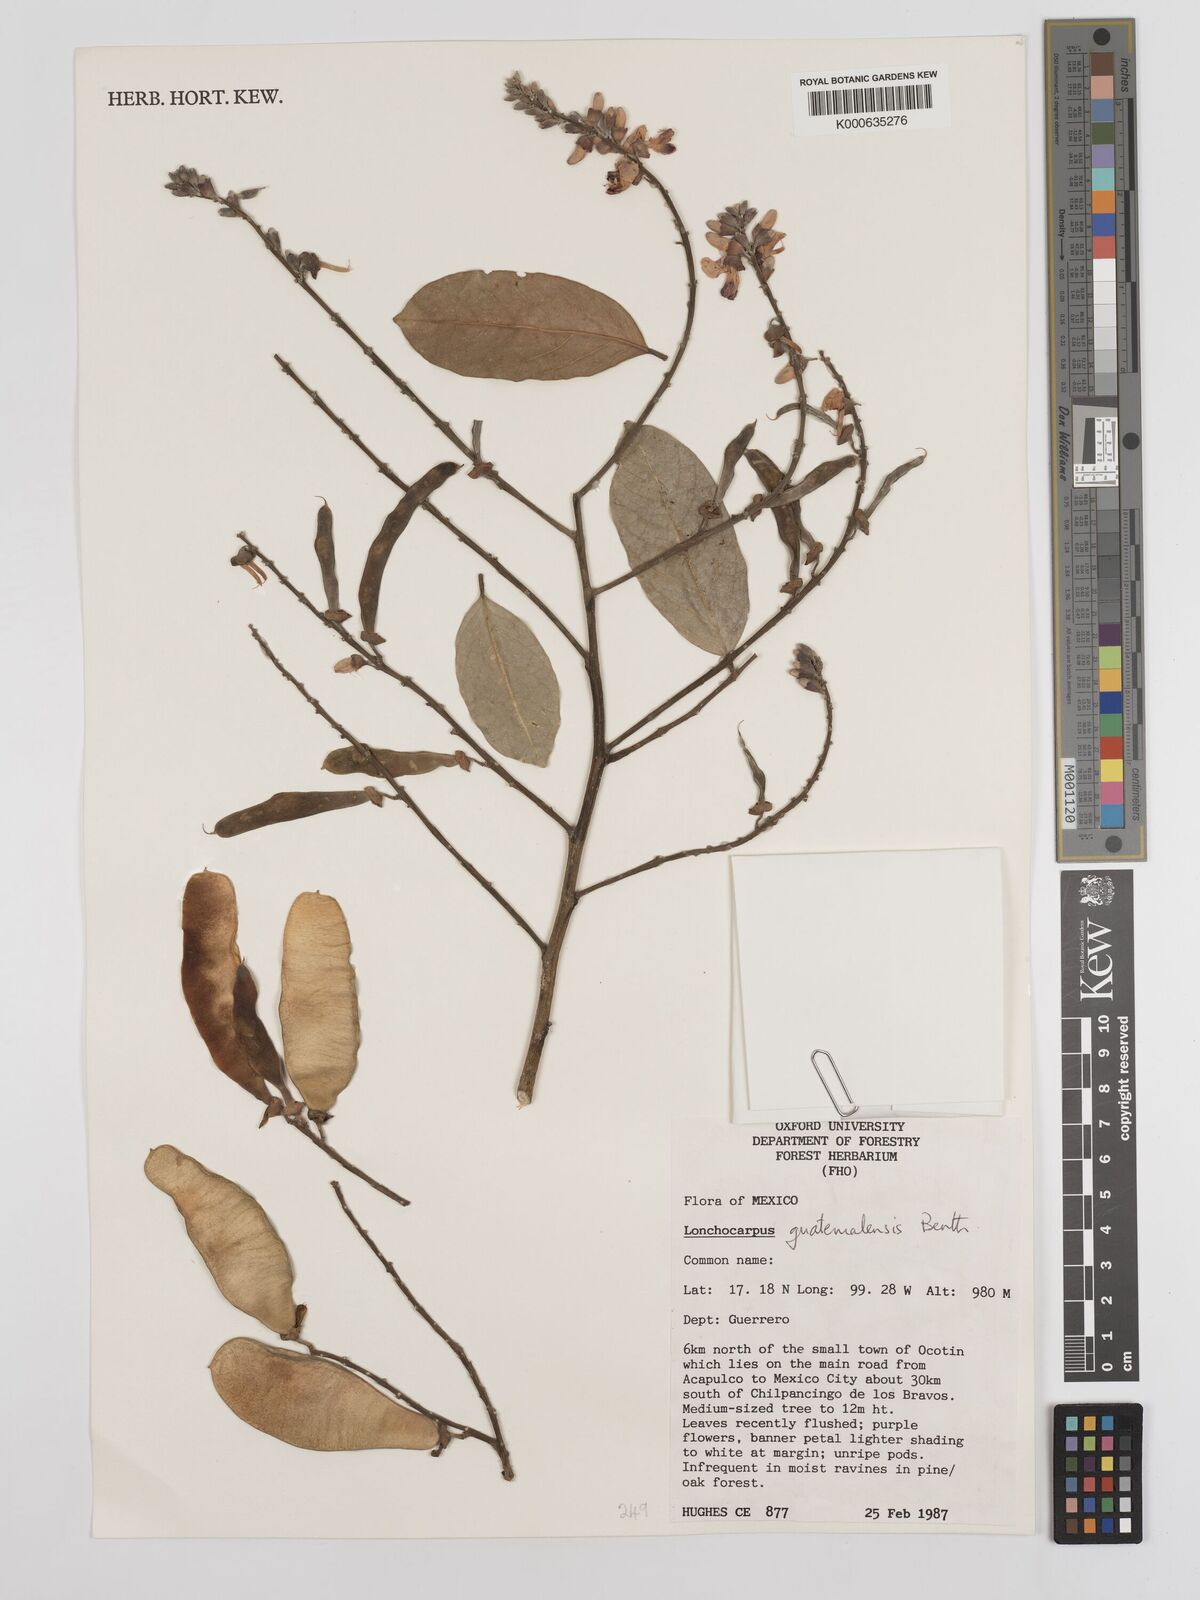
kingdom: Plantae
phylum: Tracheophyta
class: Magnoliopsida
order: Fabales
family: Fabaceae
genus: Lonchocarpus
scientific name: Lonchocarpus guatemalensis
